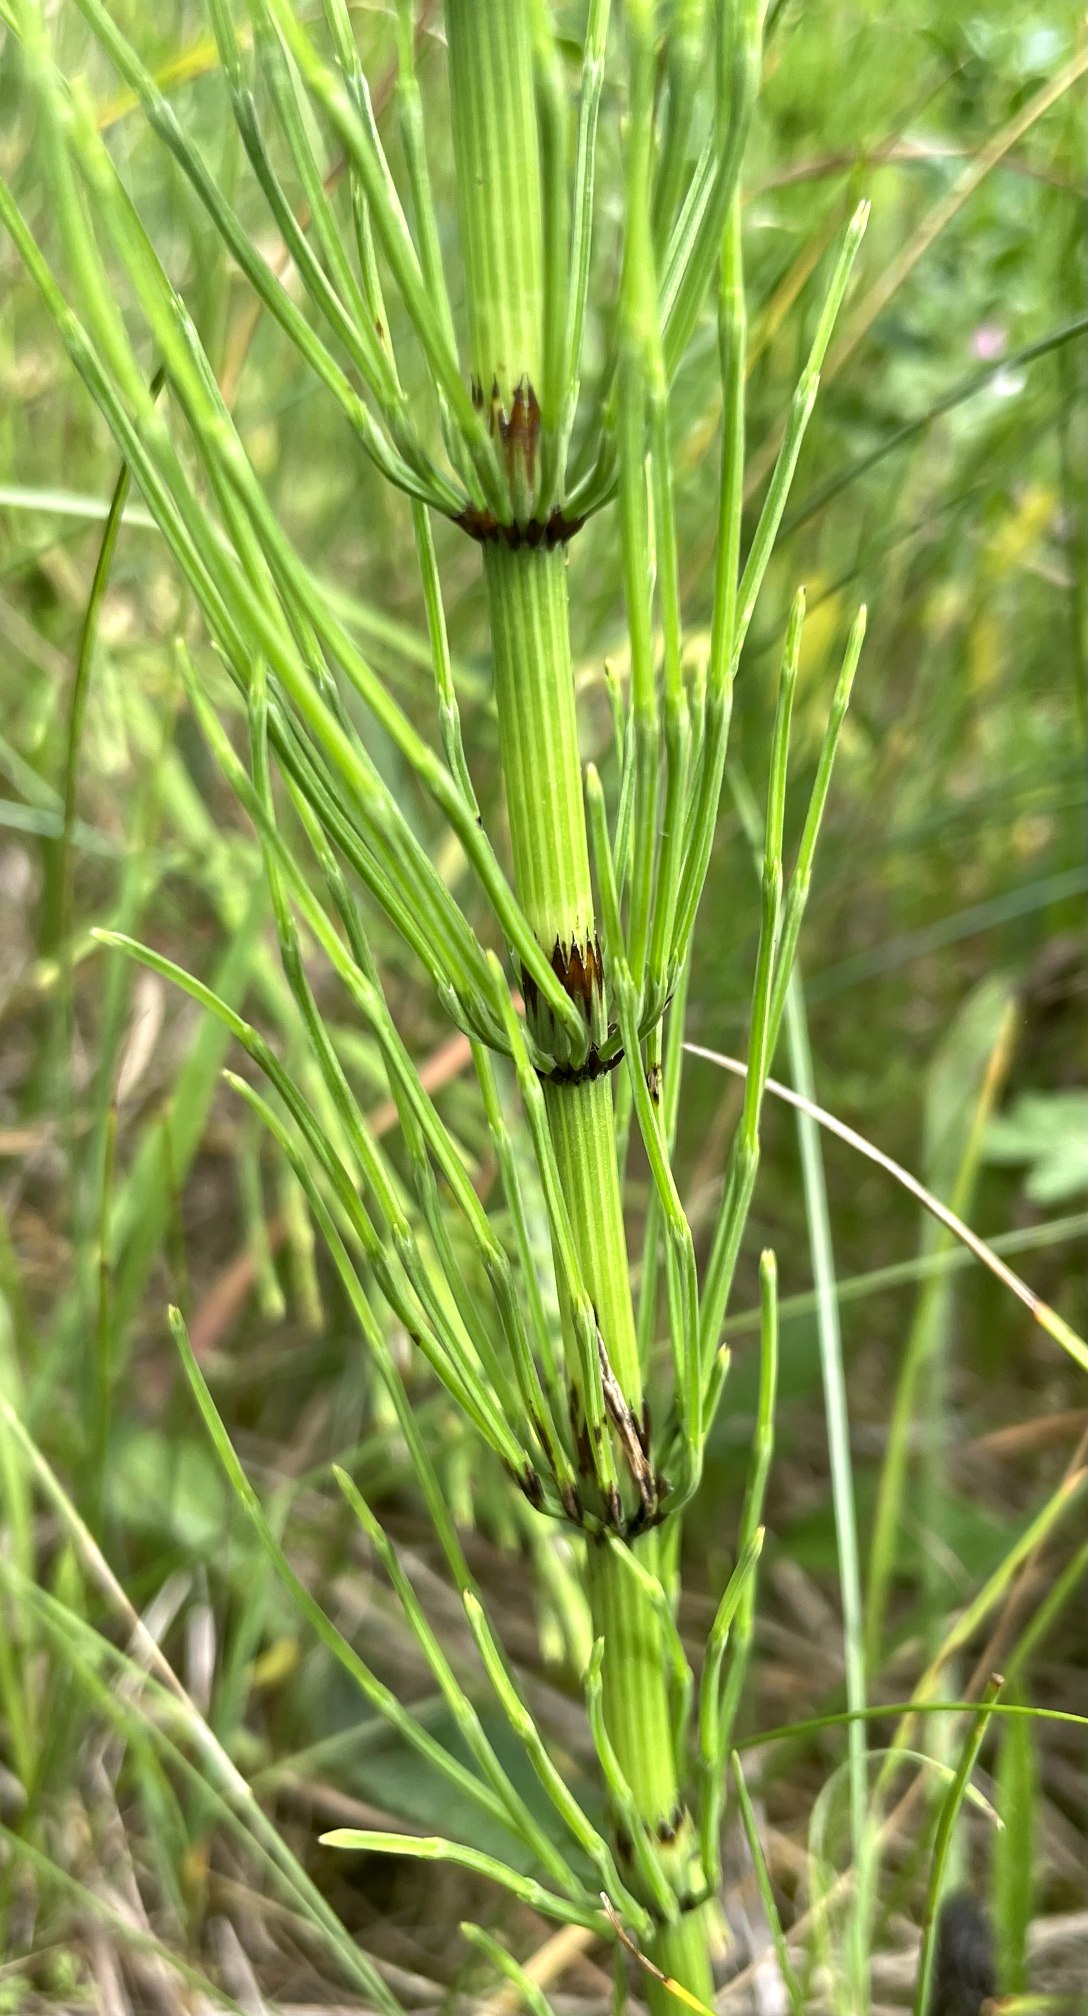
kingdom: Plantae
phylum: Tracheophyta
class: Polypodiopsida
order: Equisetales
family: Equisetaceae
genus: Equisetum
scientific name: Equisetum arvense
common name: Ager-padderok
